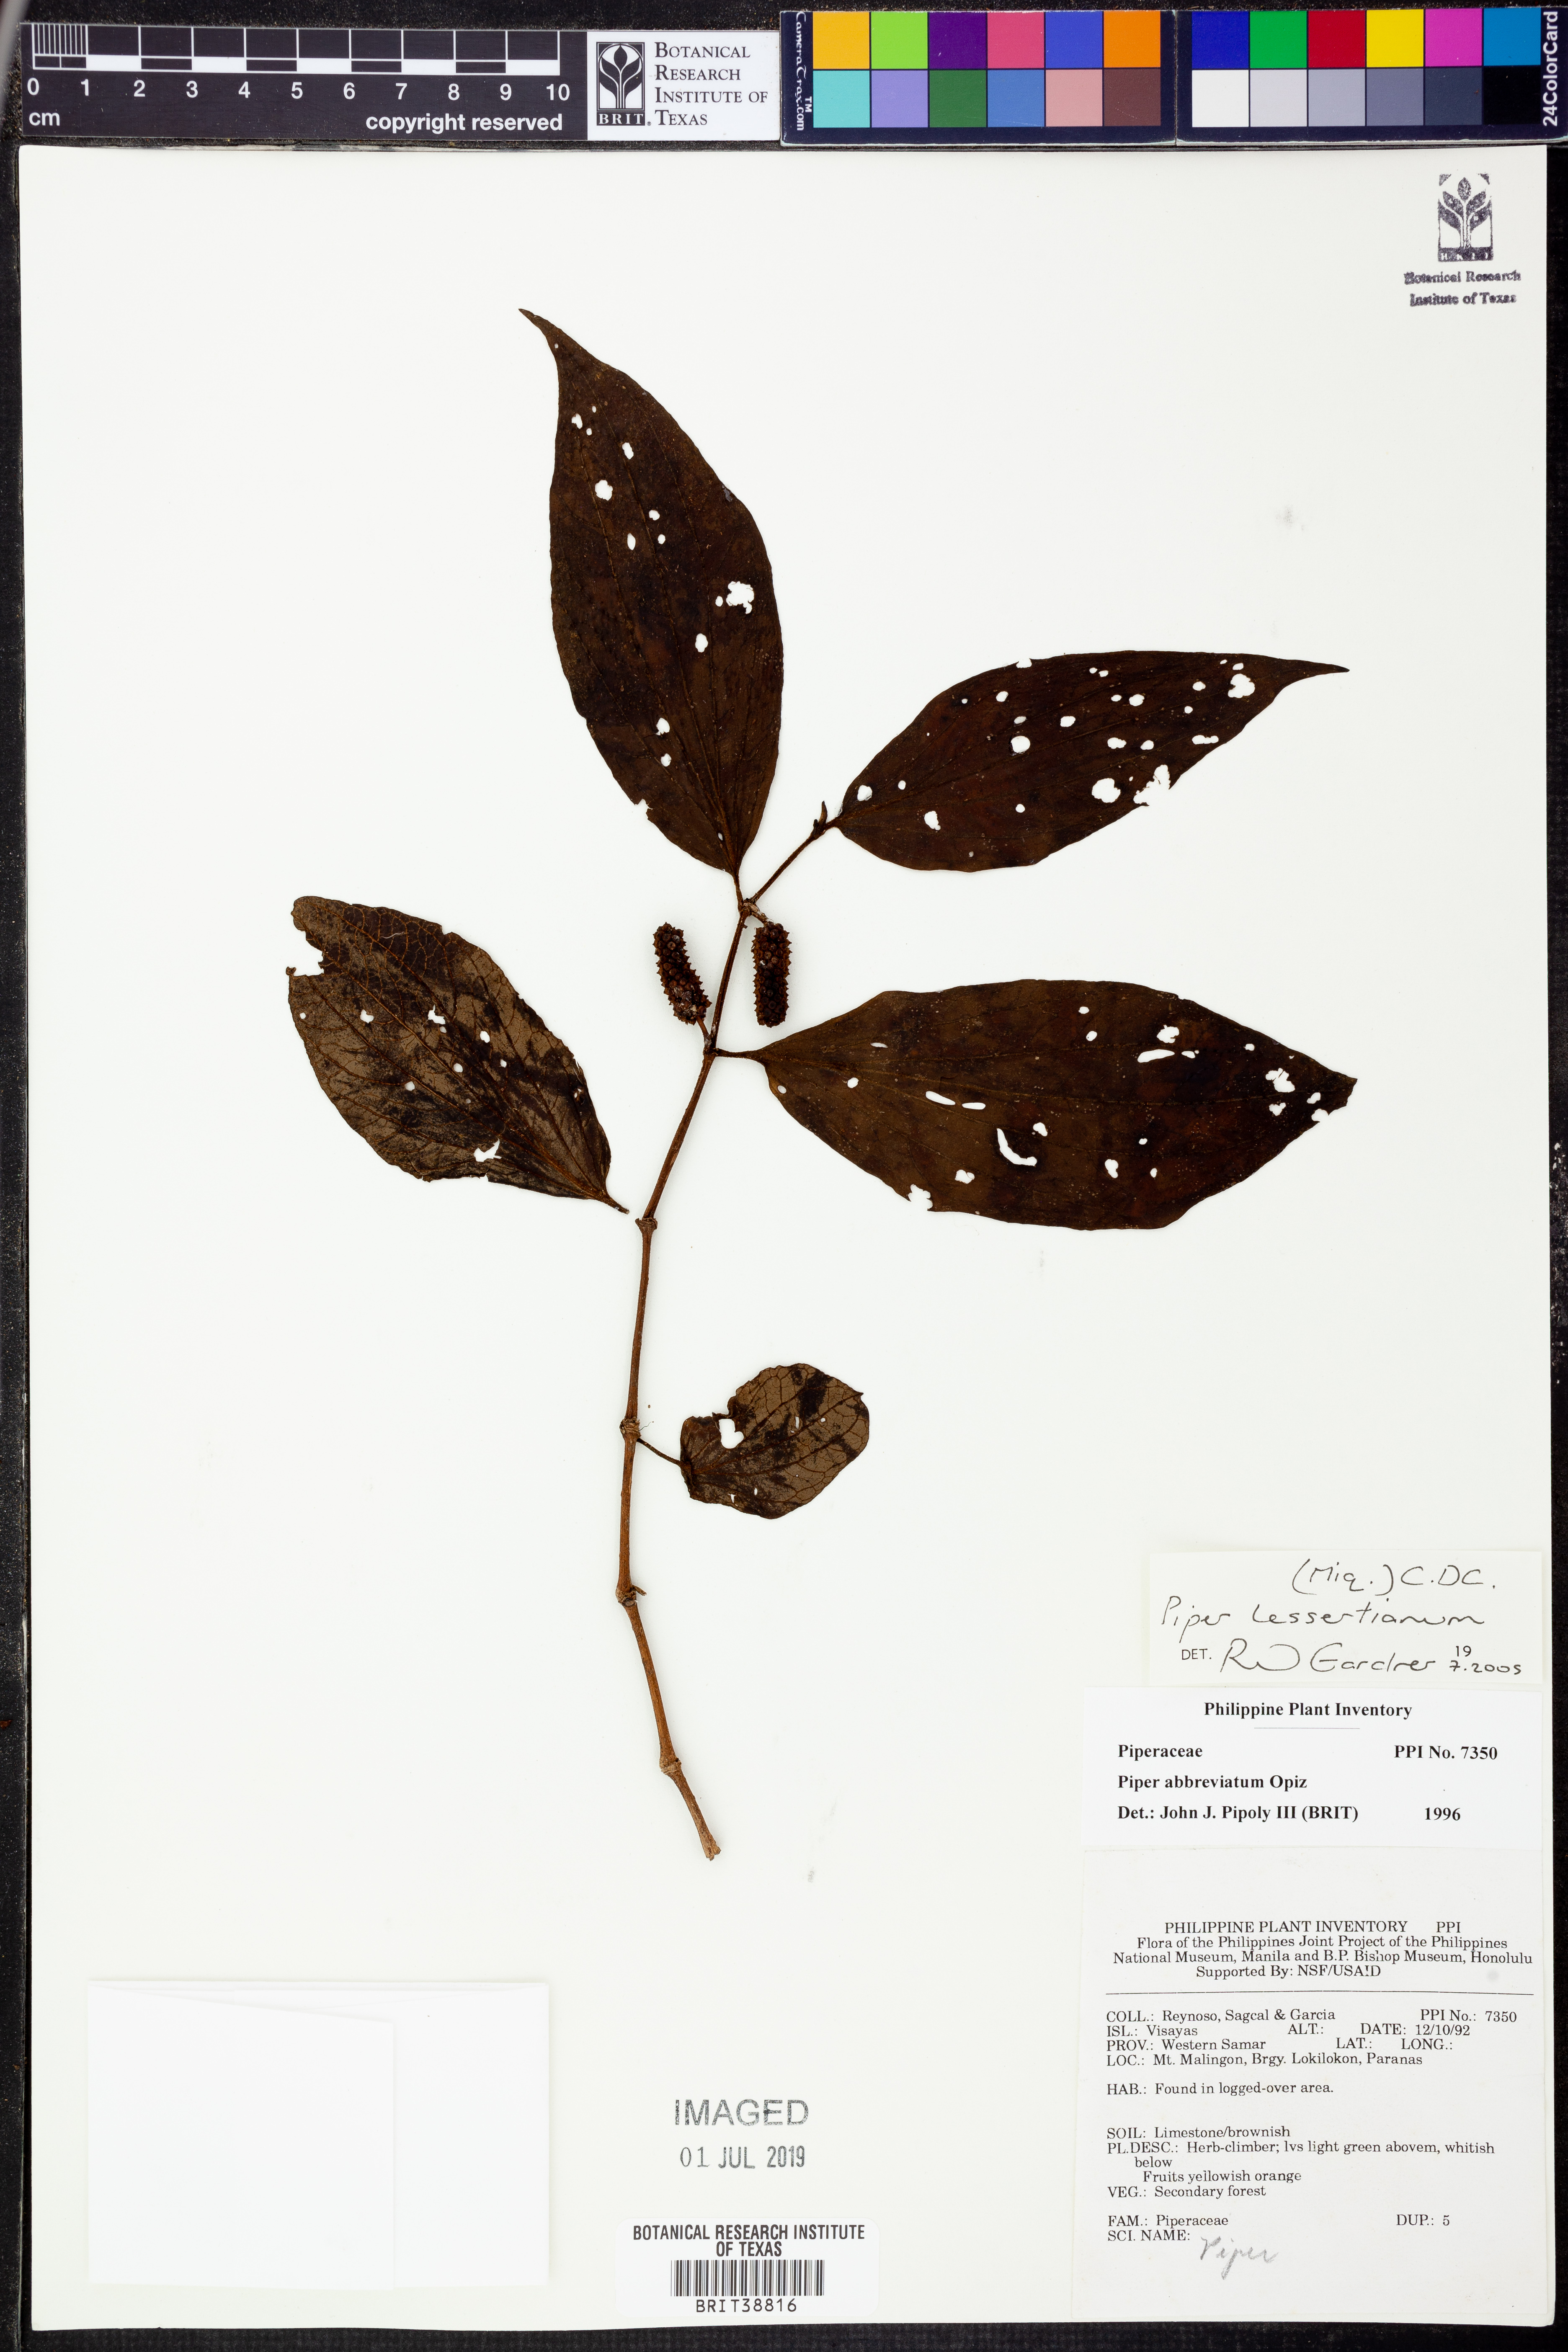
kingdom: Plantae
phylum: Tracheophyta
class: Magnoliopsida
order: Piperales
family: Piperaceae
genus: Piper
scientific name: Piper lessertianum
